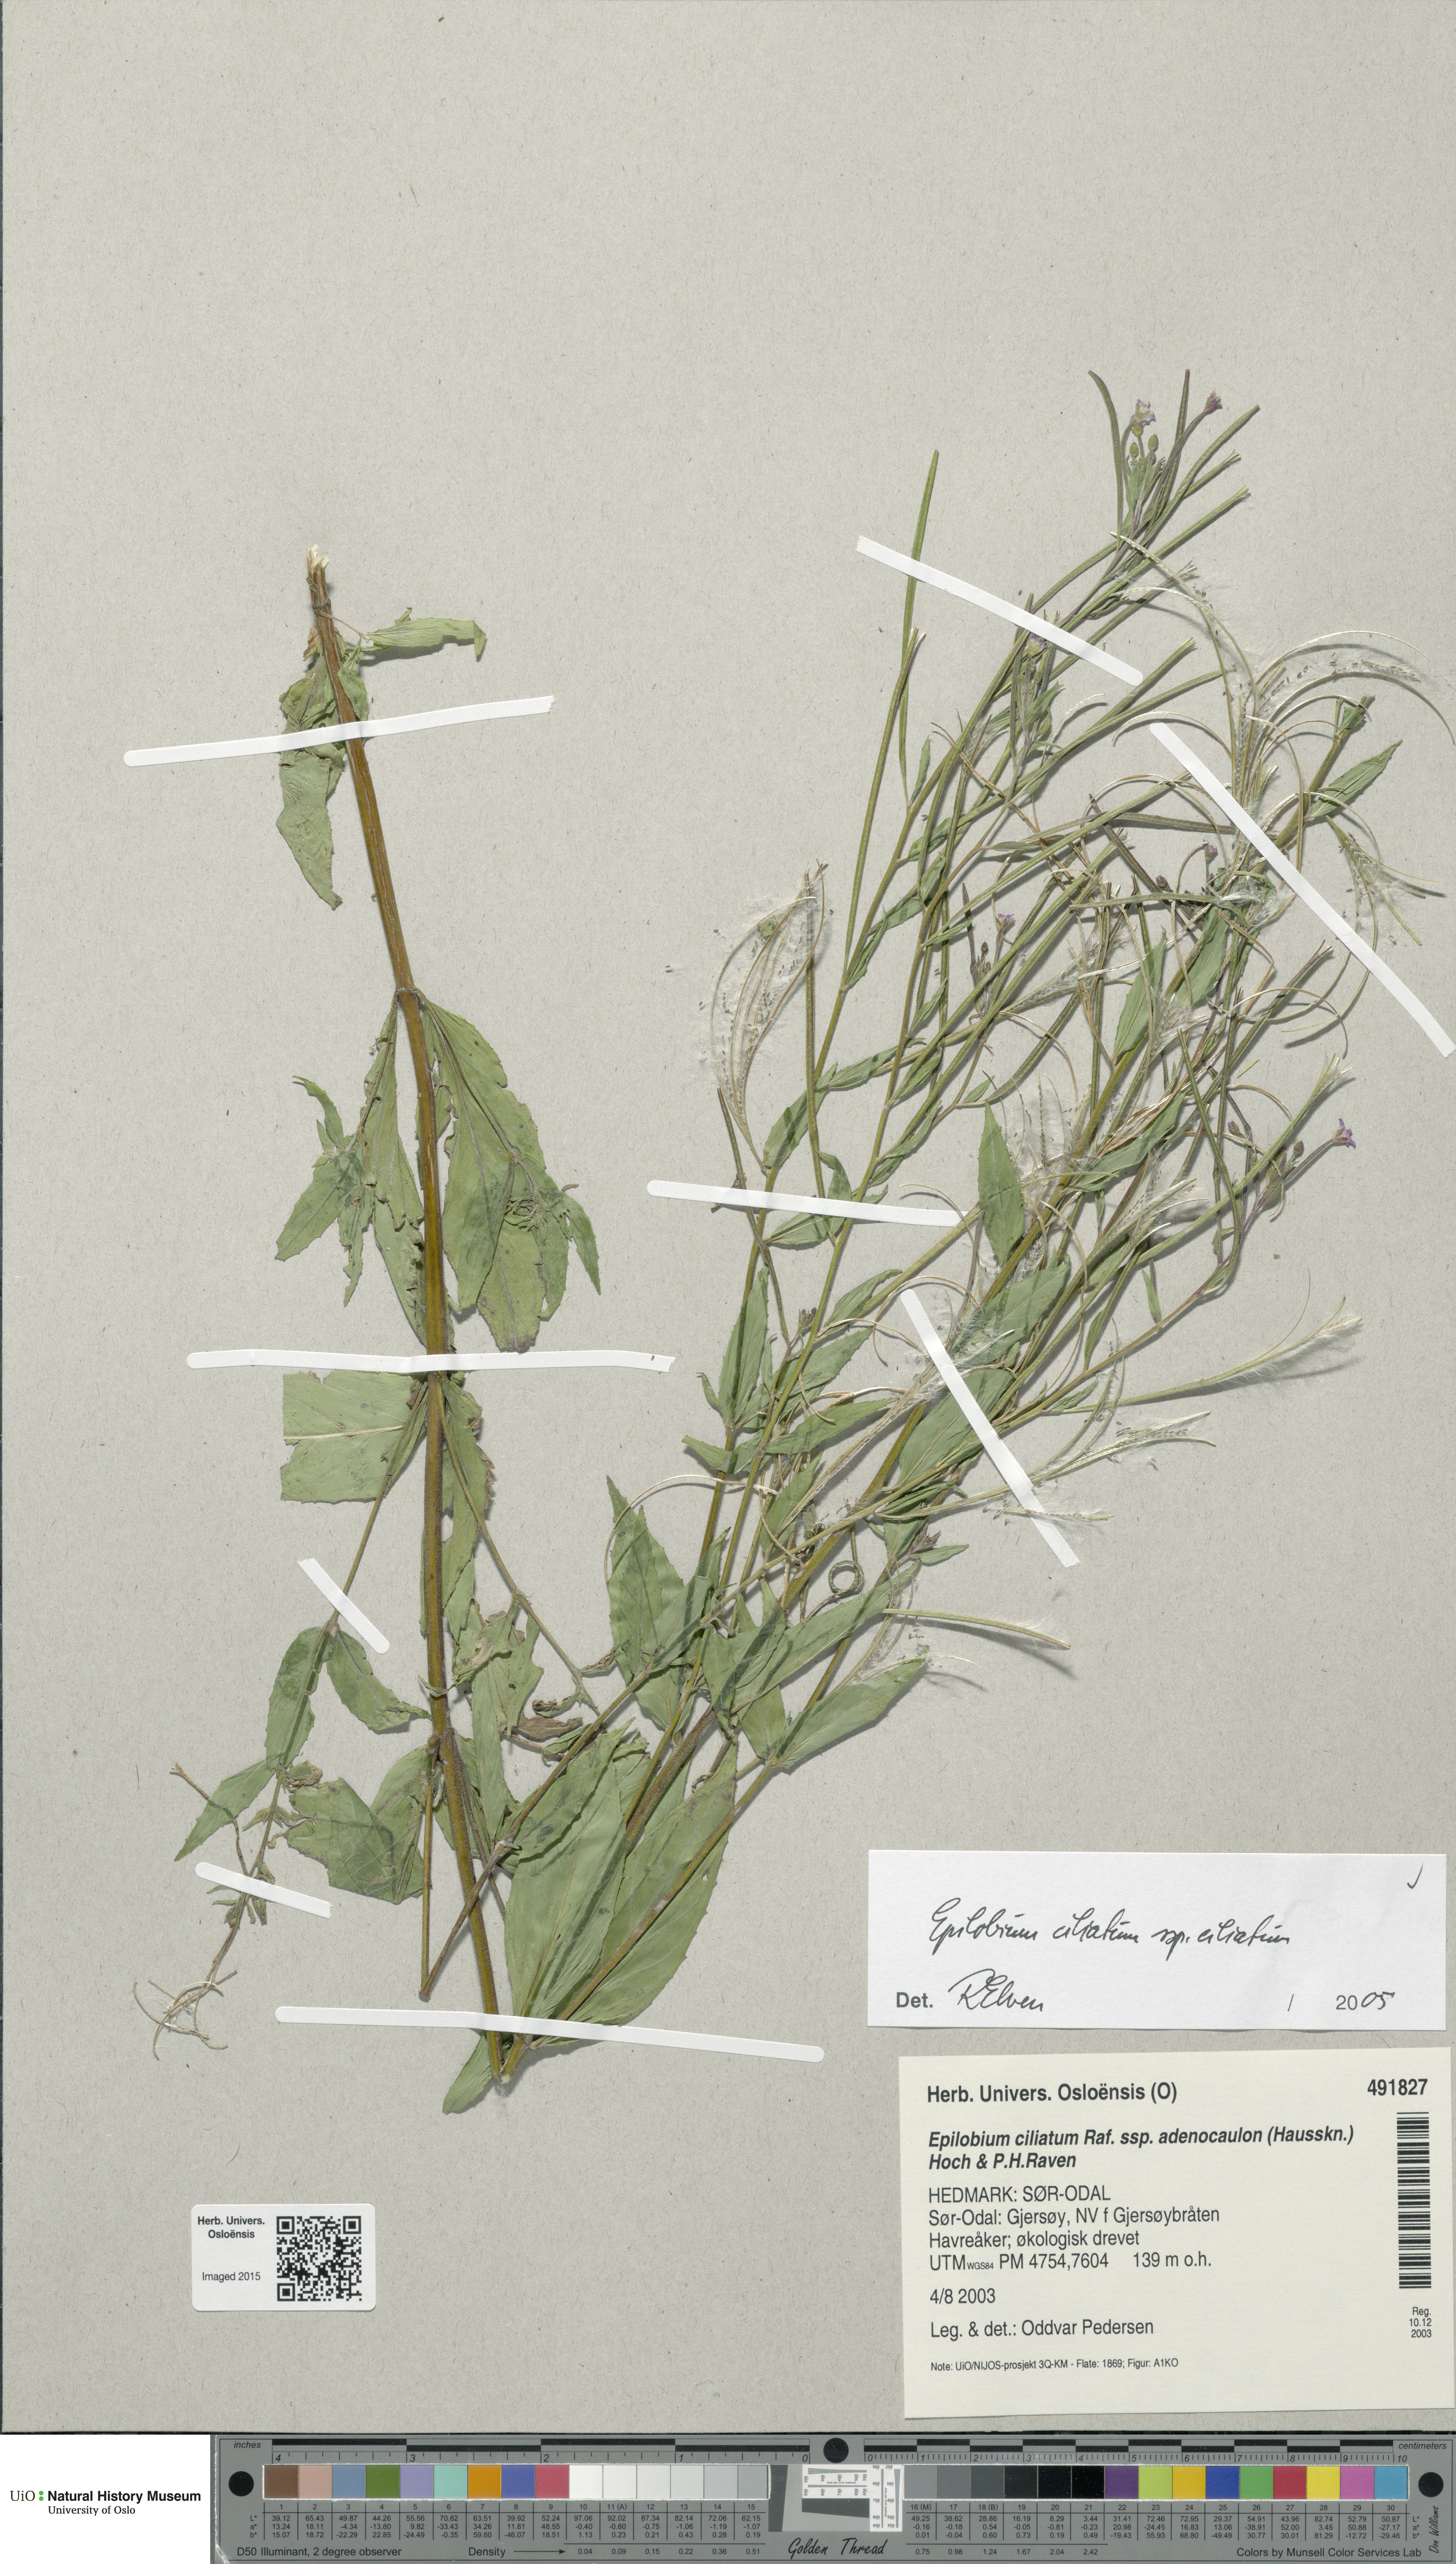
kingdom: Plantae
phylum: Tracheophyta
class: Magnoliopsida
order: Myrtales
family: Onagraceae
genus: Epilobium
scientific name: Epilobium ciliatum
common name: American willowherb
